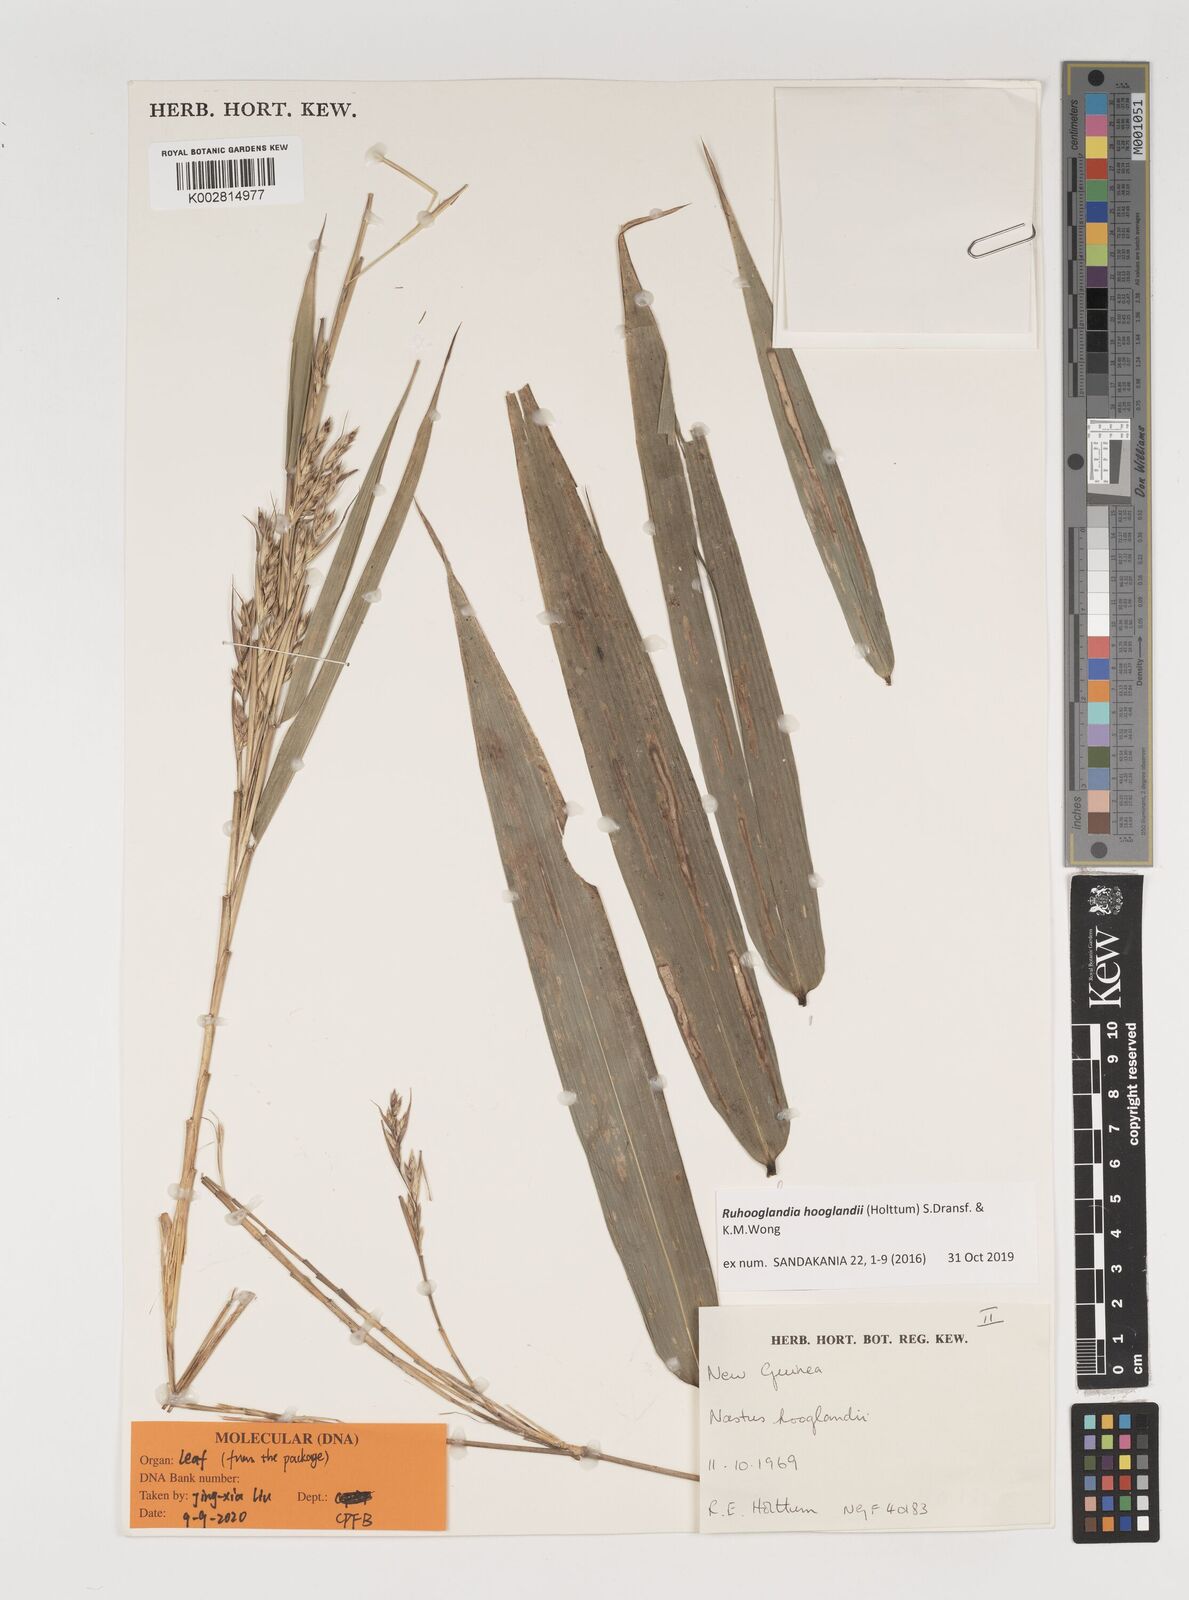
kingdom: Plantae
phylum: Tracheophyta
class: Liliopsida
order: Poales
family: Poaceae
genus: Greslania
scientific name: Greslania
